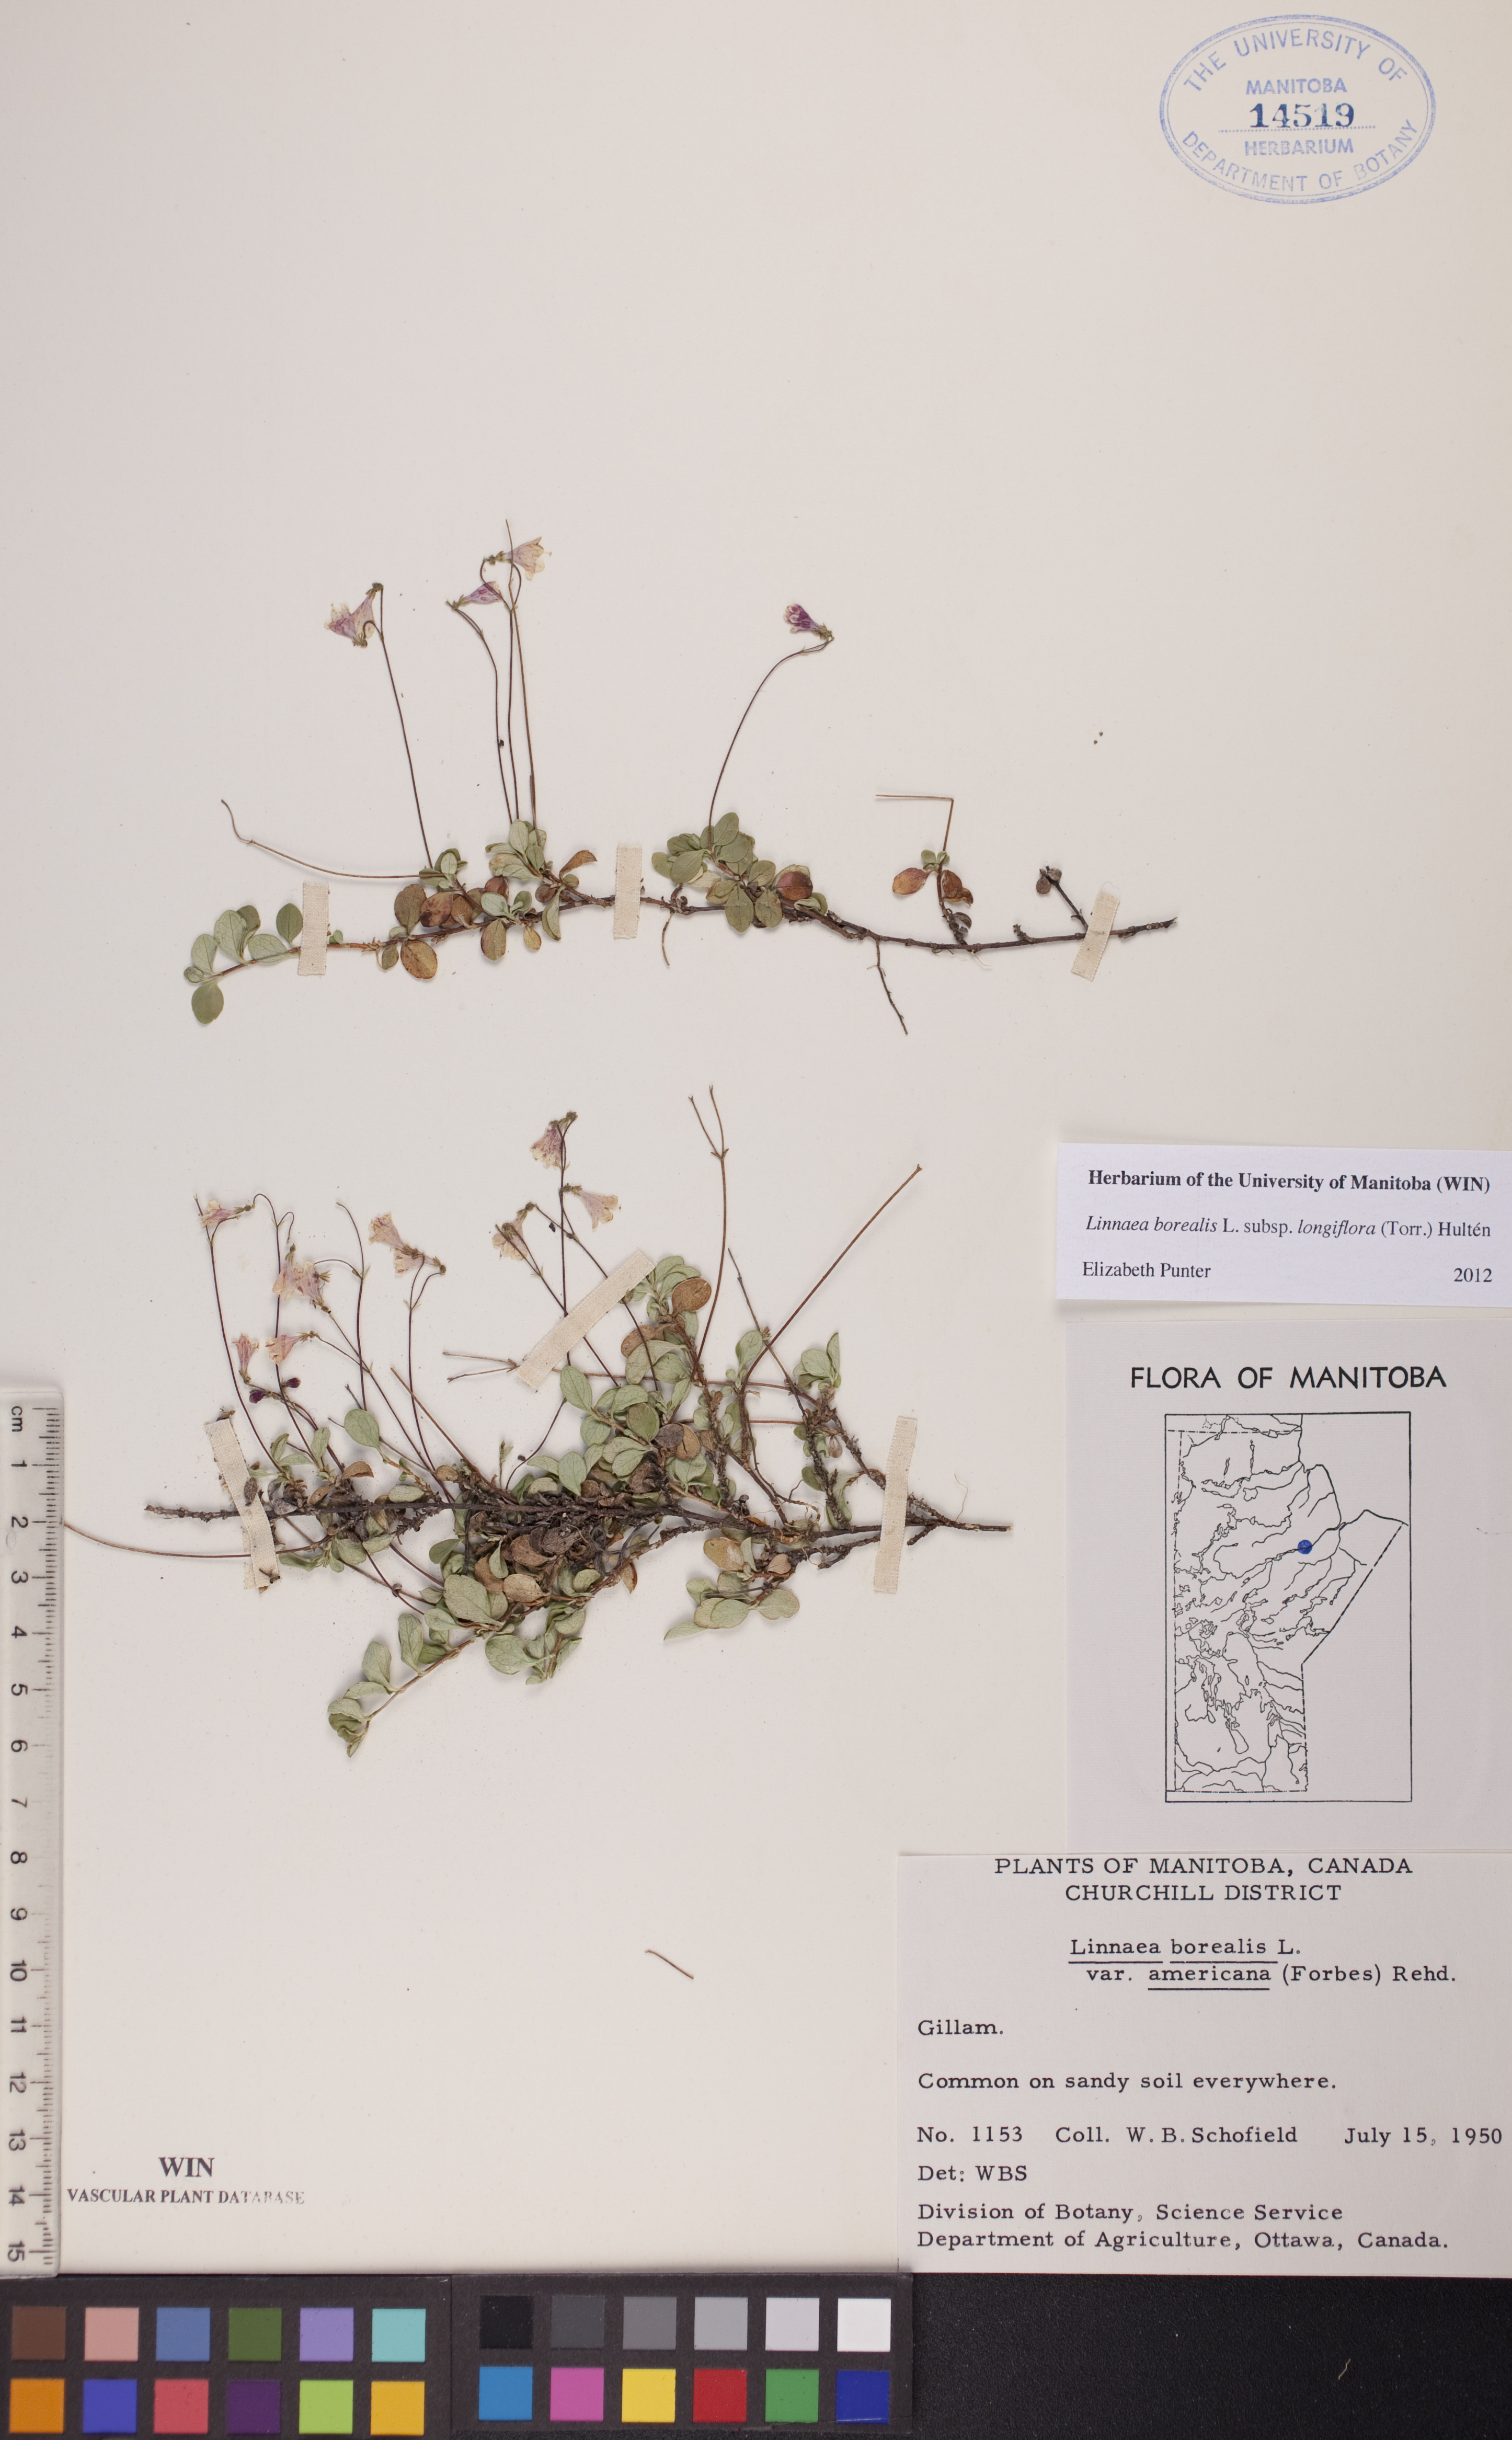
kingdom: Plantae
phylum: Tracheophyta
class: Magnoliopsida
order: Dipsacales
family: Caprifoliaceae
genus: Linnaea
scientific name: Linnaea borealis
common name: Twinflower
